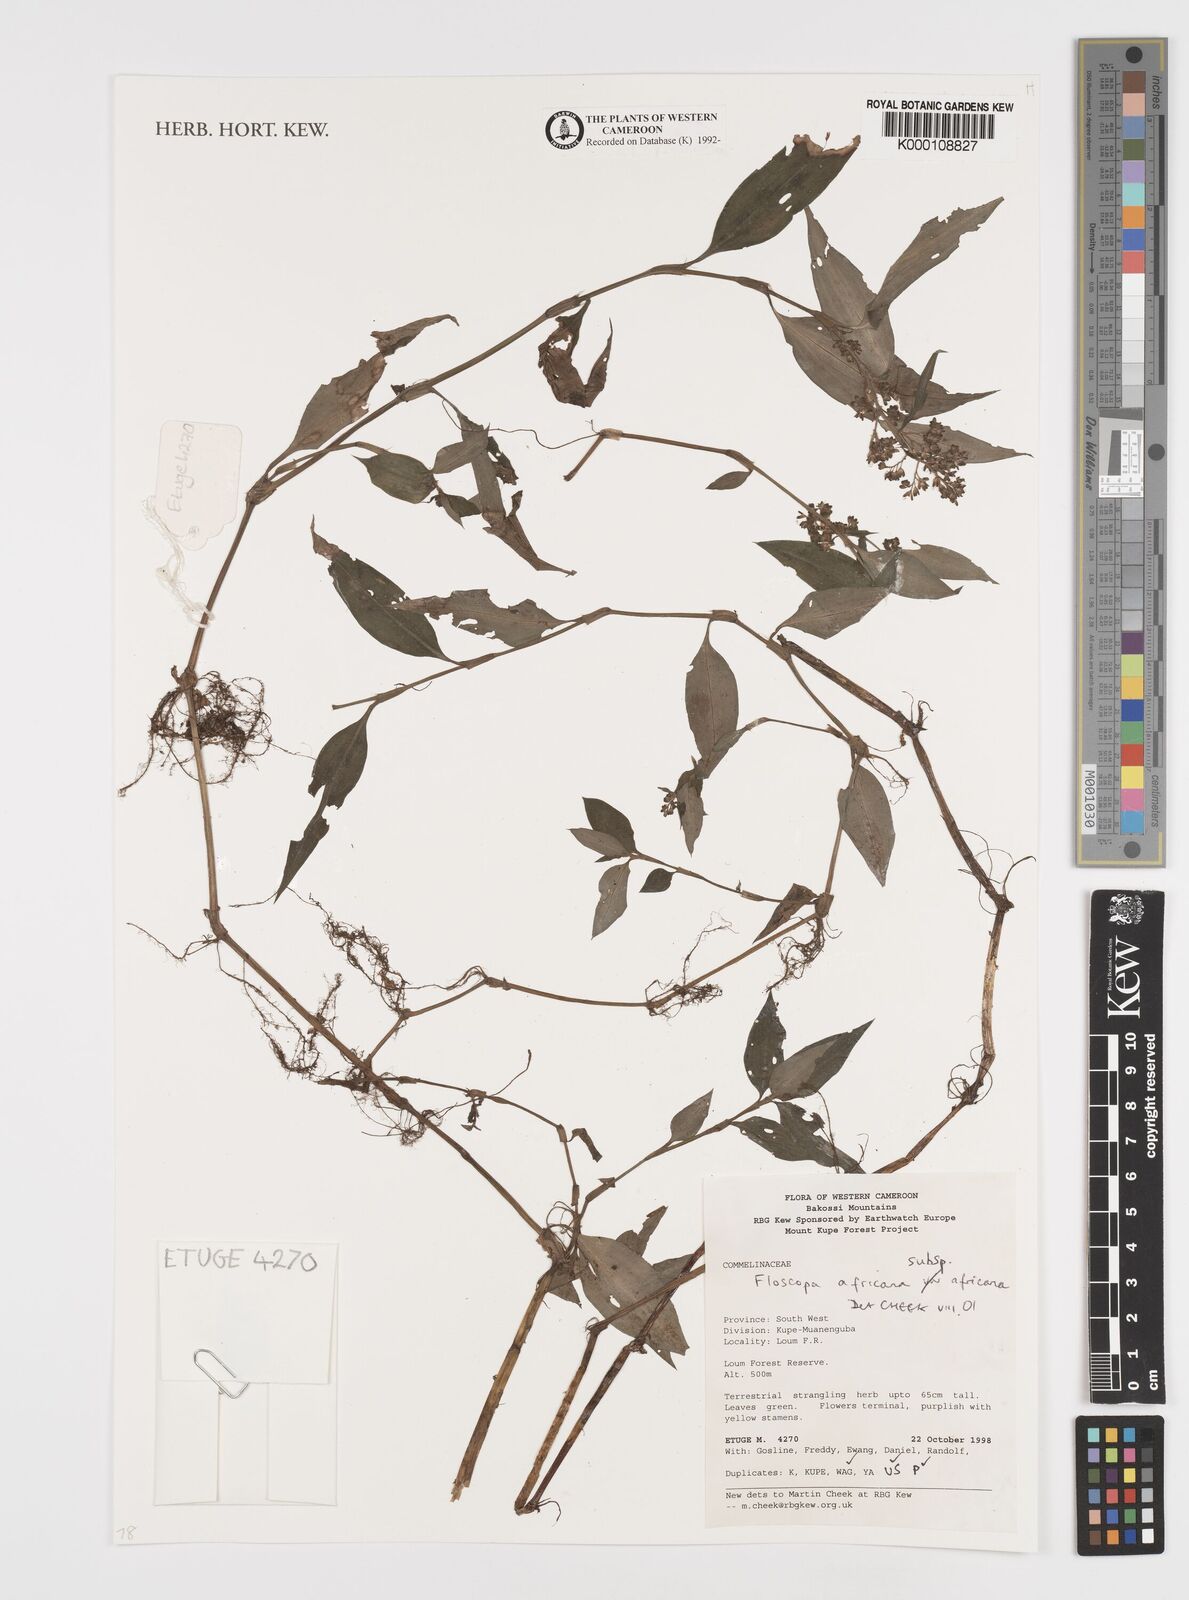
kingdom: Plantae
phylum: Tracheophyta
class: Liliopsida
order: Commelinales
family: Commelinaceae
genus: Floscopa
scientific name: Floscopa africana
